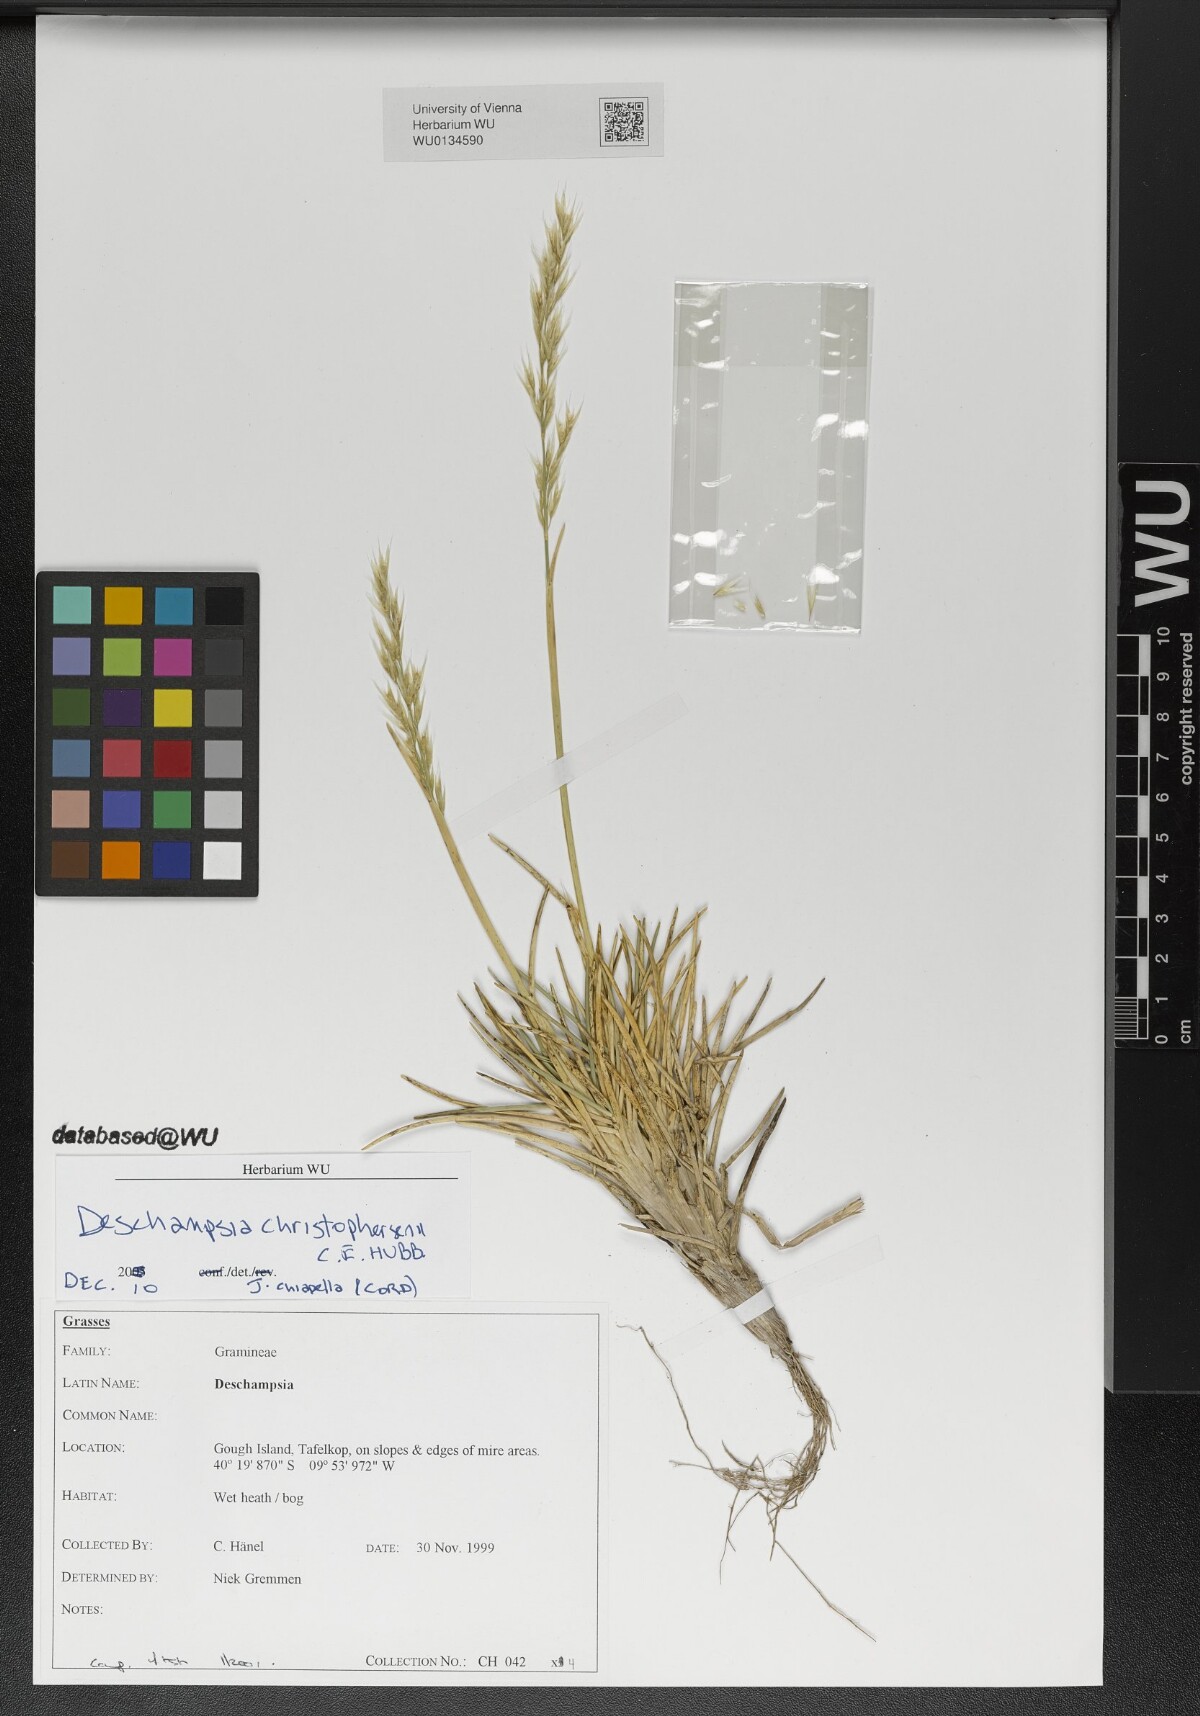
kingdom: Plantae
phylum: Tracheophyta
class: Liliopsida
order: Poales
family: Poaceae
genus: Deschampsia
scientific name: Deschampsia christophersenii
